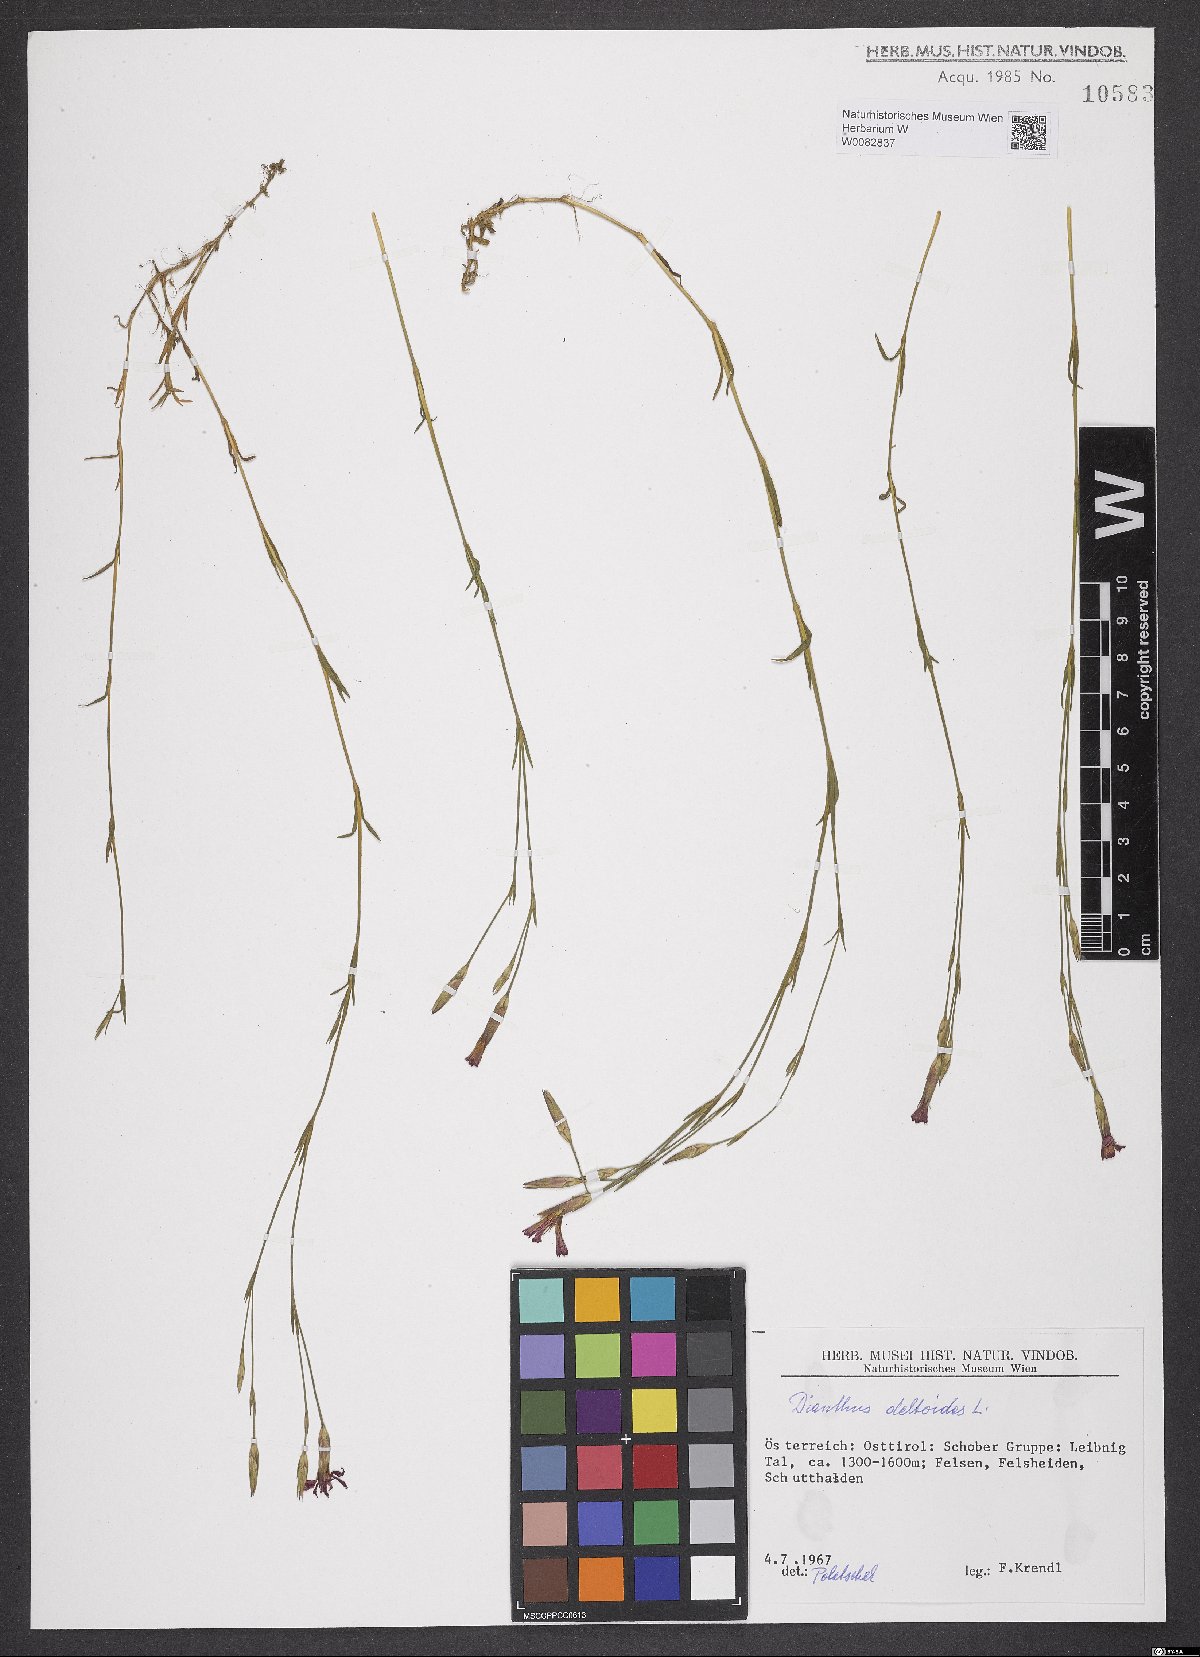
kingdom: Plantae
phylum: Tracheophyta
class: Magnoliopsida
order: Caryophyllales
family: Caryophyllaceae
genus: Dianthus
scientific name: Dianthus deltoides
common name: Maiden pink
